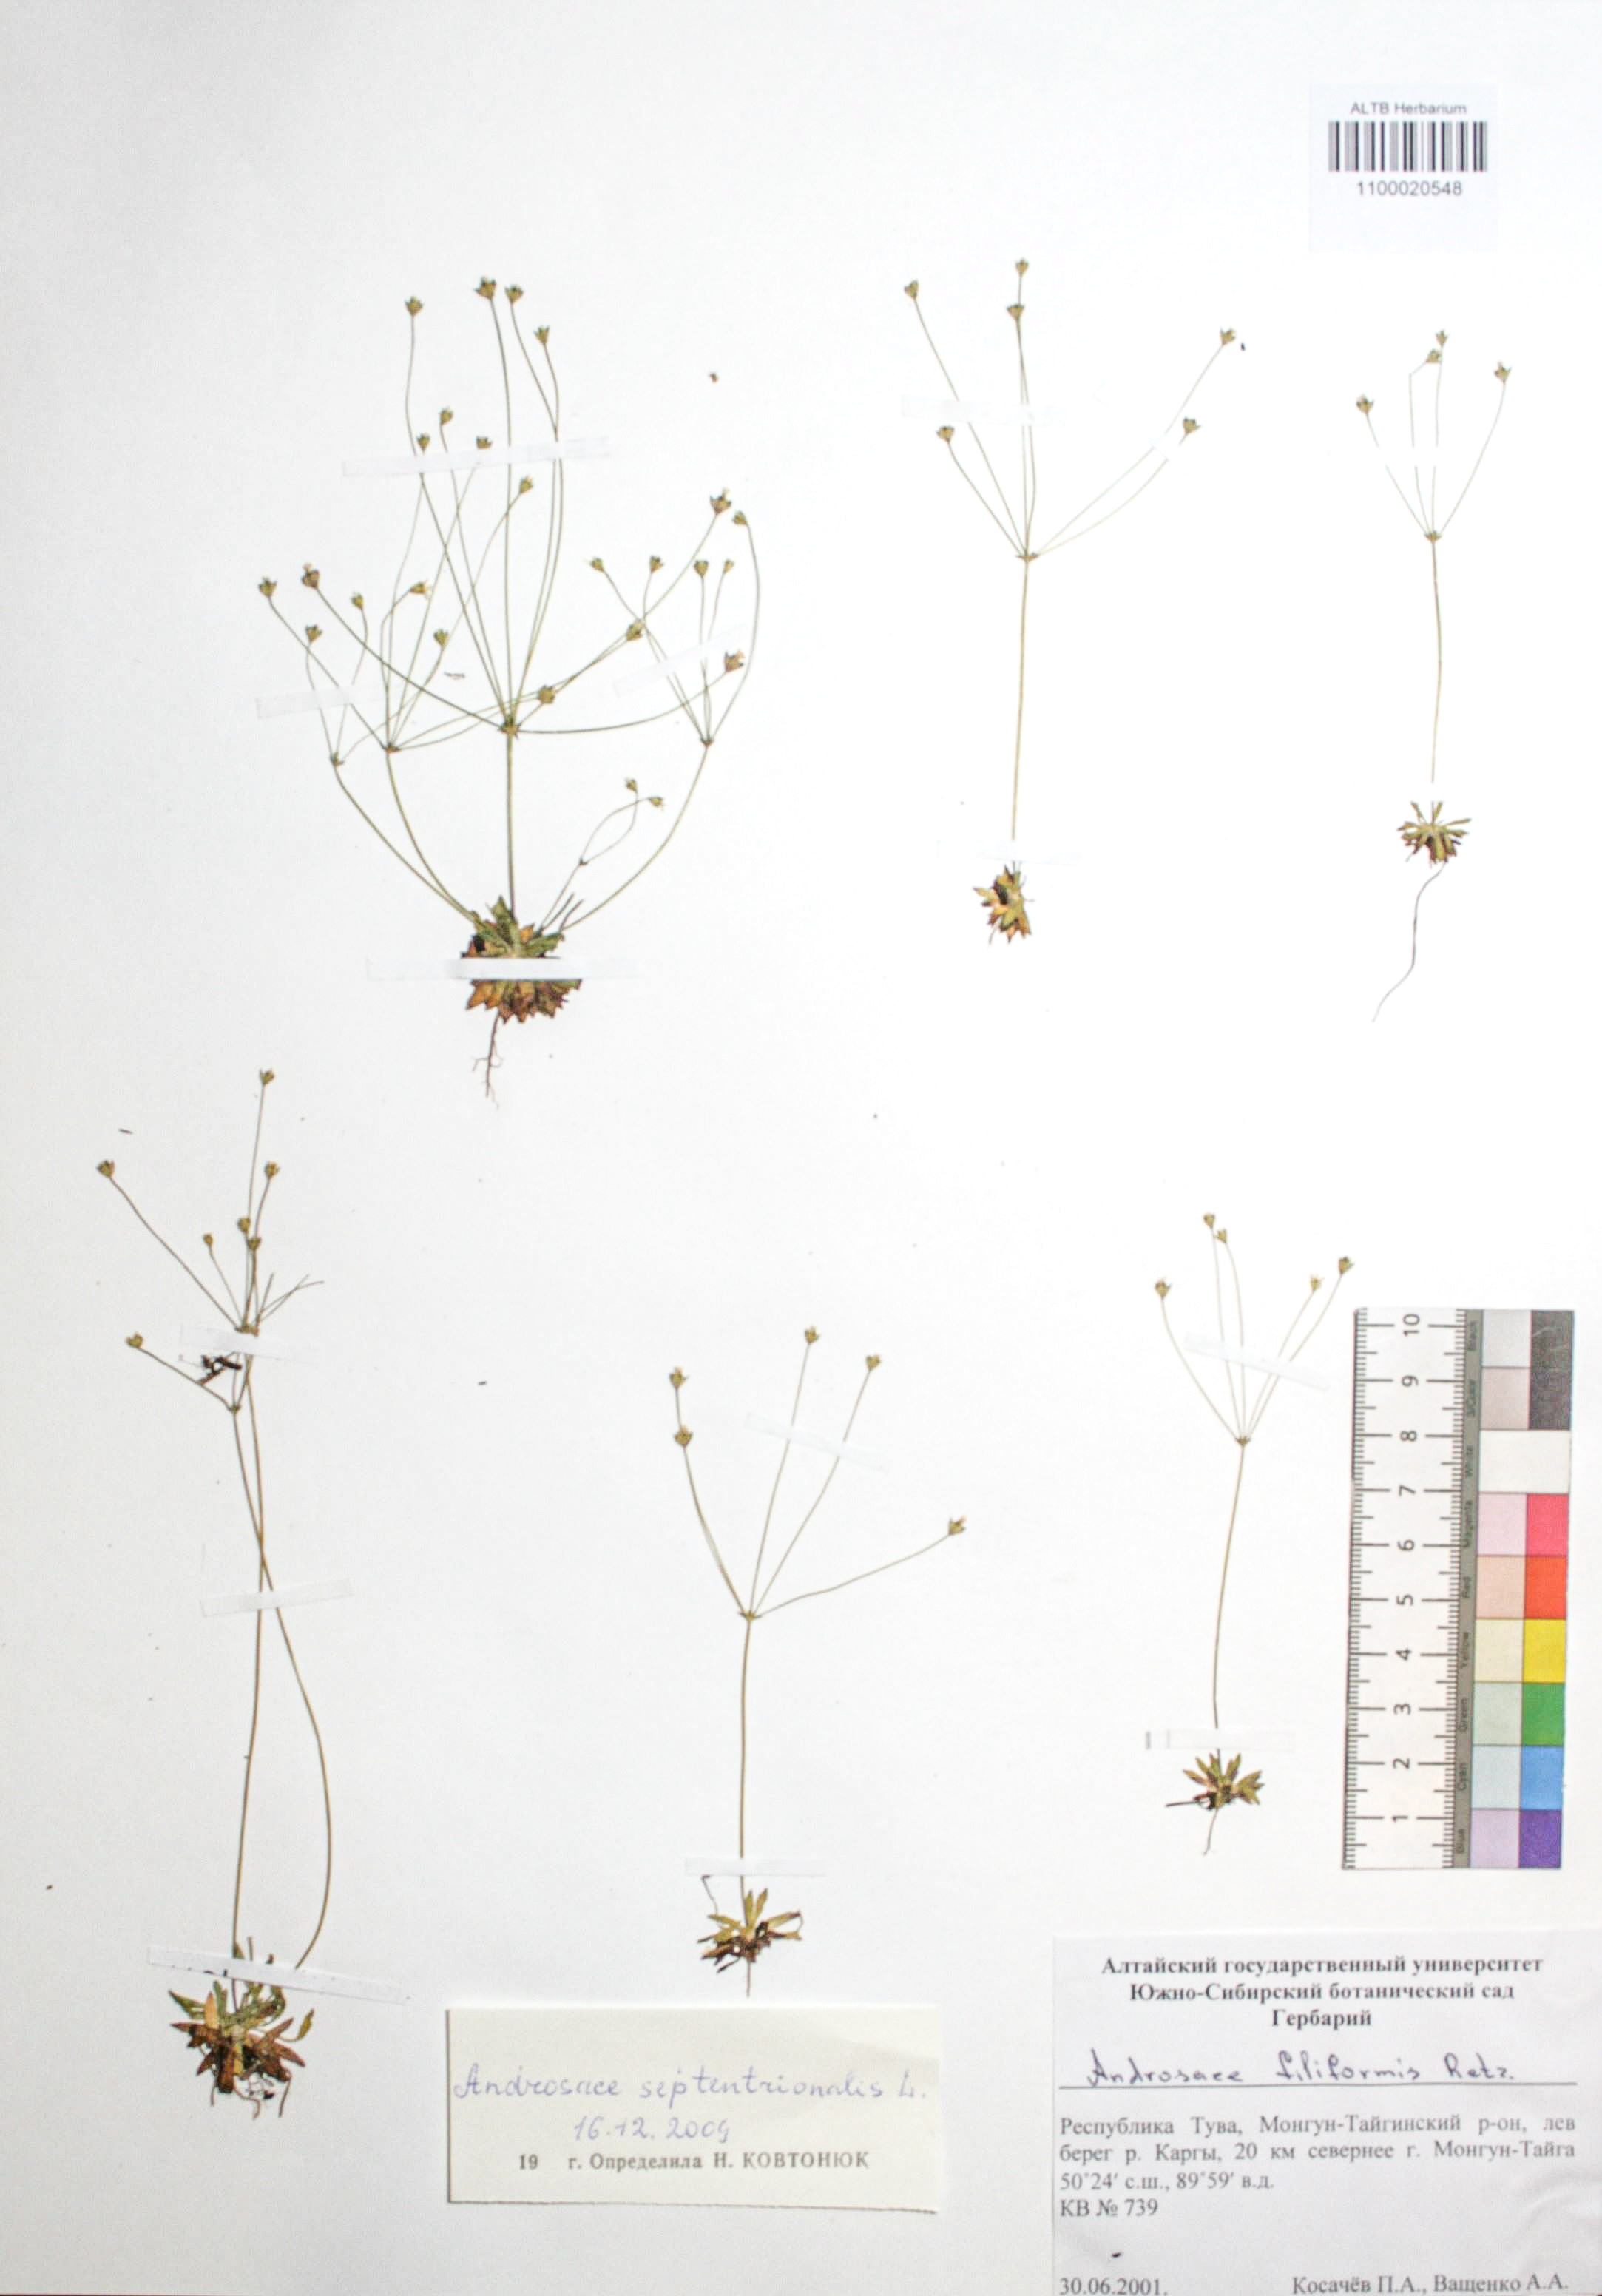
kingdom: Plantae
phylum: Tracheophyta
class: Magnoliopsida
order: Ericales
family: Primulaceae
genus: Androsace
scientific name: Androsace septentrionalis
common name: Hairy northern fairy-candelabra
